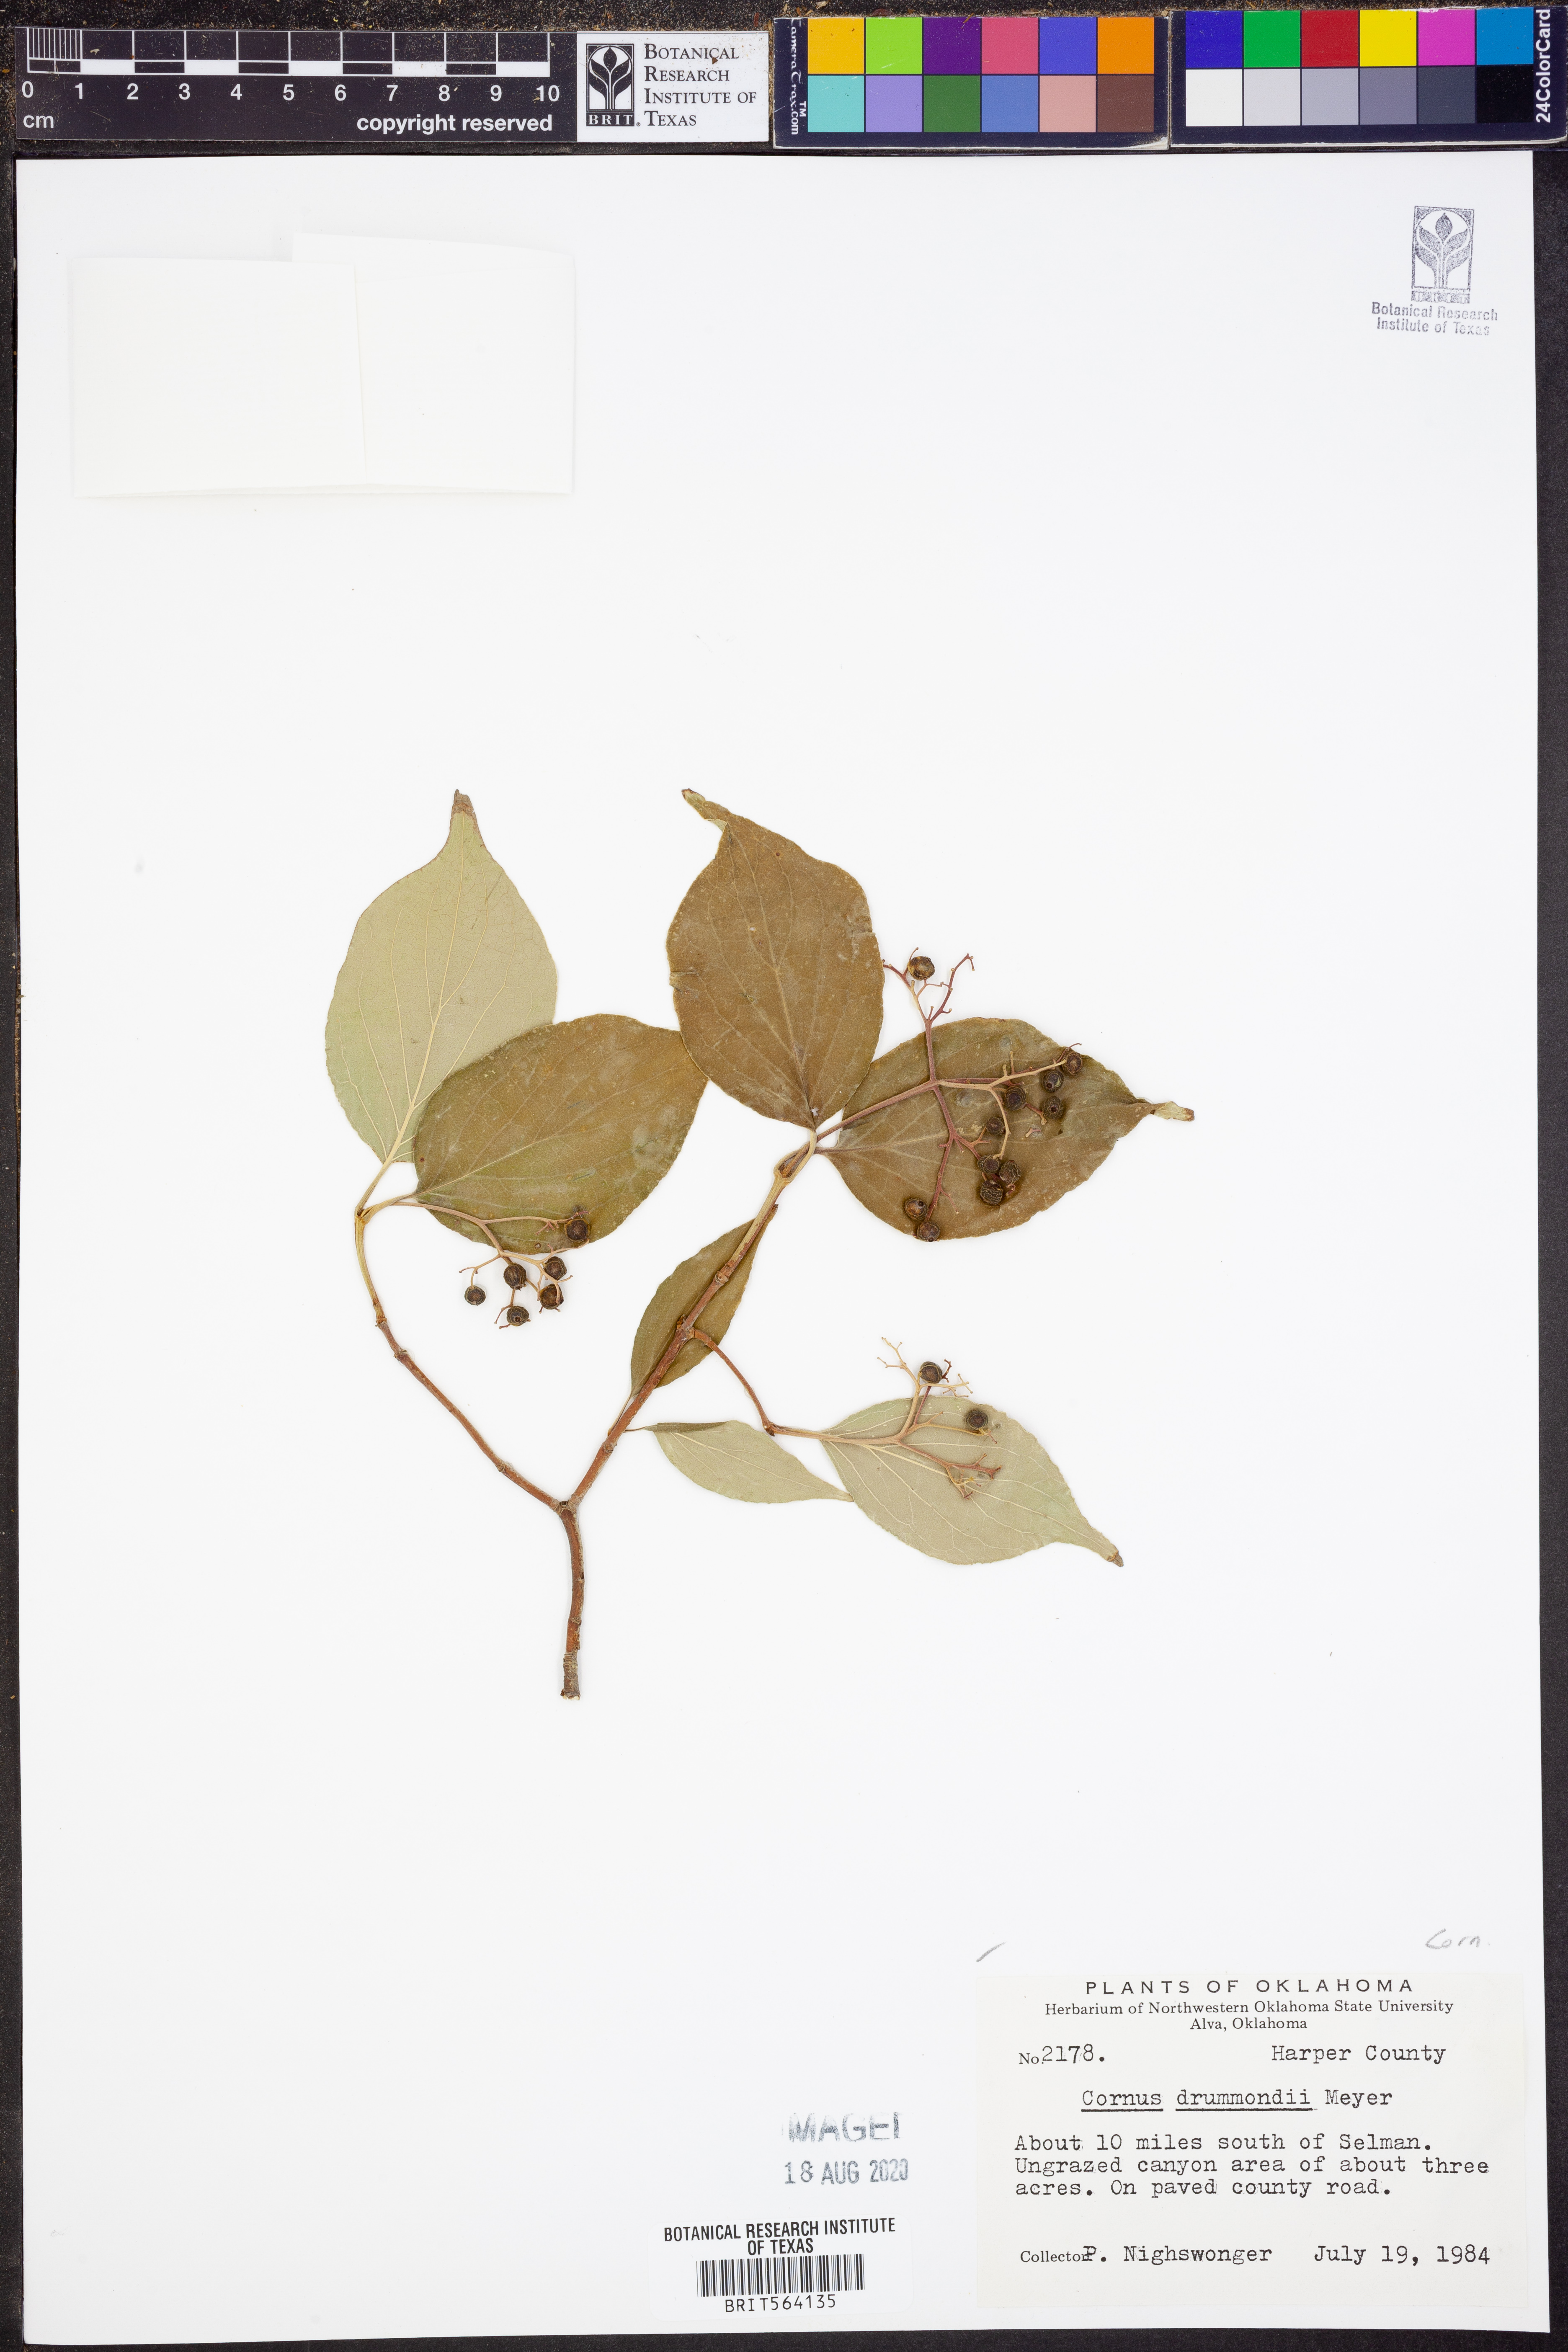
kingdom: Plantae
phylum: Tracheophyta
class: Magnoliopsida
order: Cornales
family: Cornaceae
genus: Cornus
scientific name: Cornus drummondii
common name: Rough-leaf dogwood
